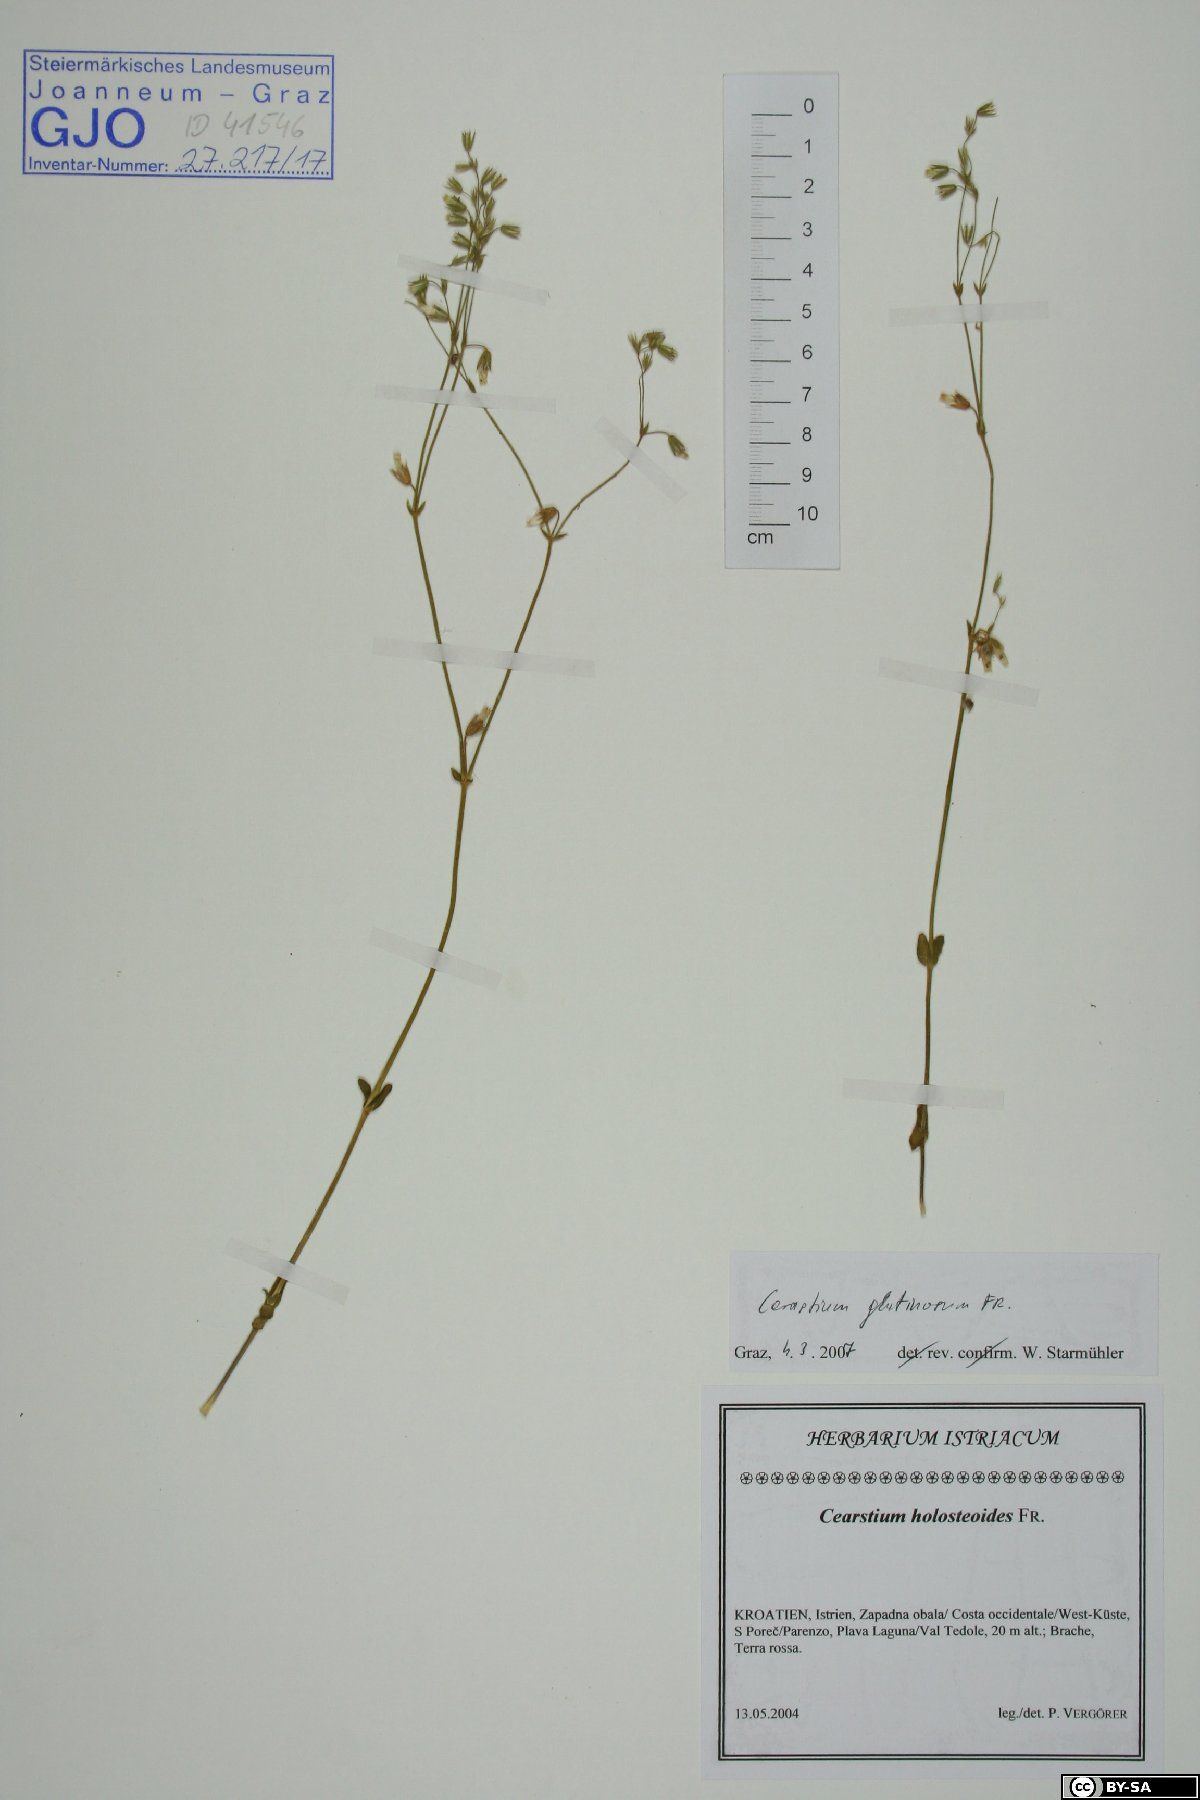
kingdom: Plantae
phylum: Tracheophyta
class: Magnoliopsida
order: Caryophyllales
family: Caryophyllaceae
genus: Cerastium
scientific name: Cerastium glutinosum
